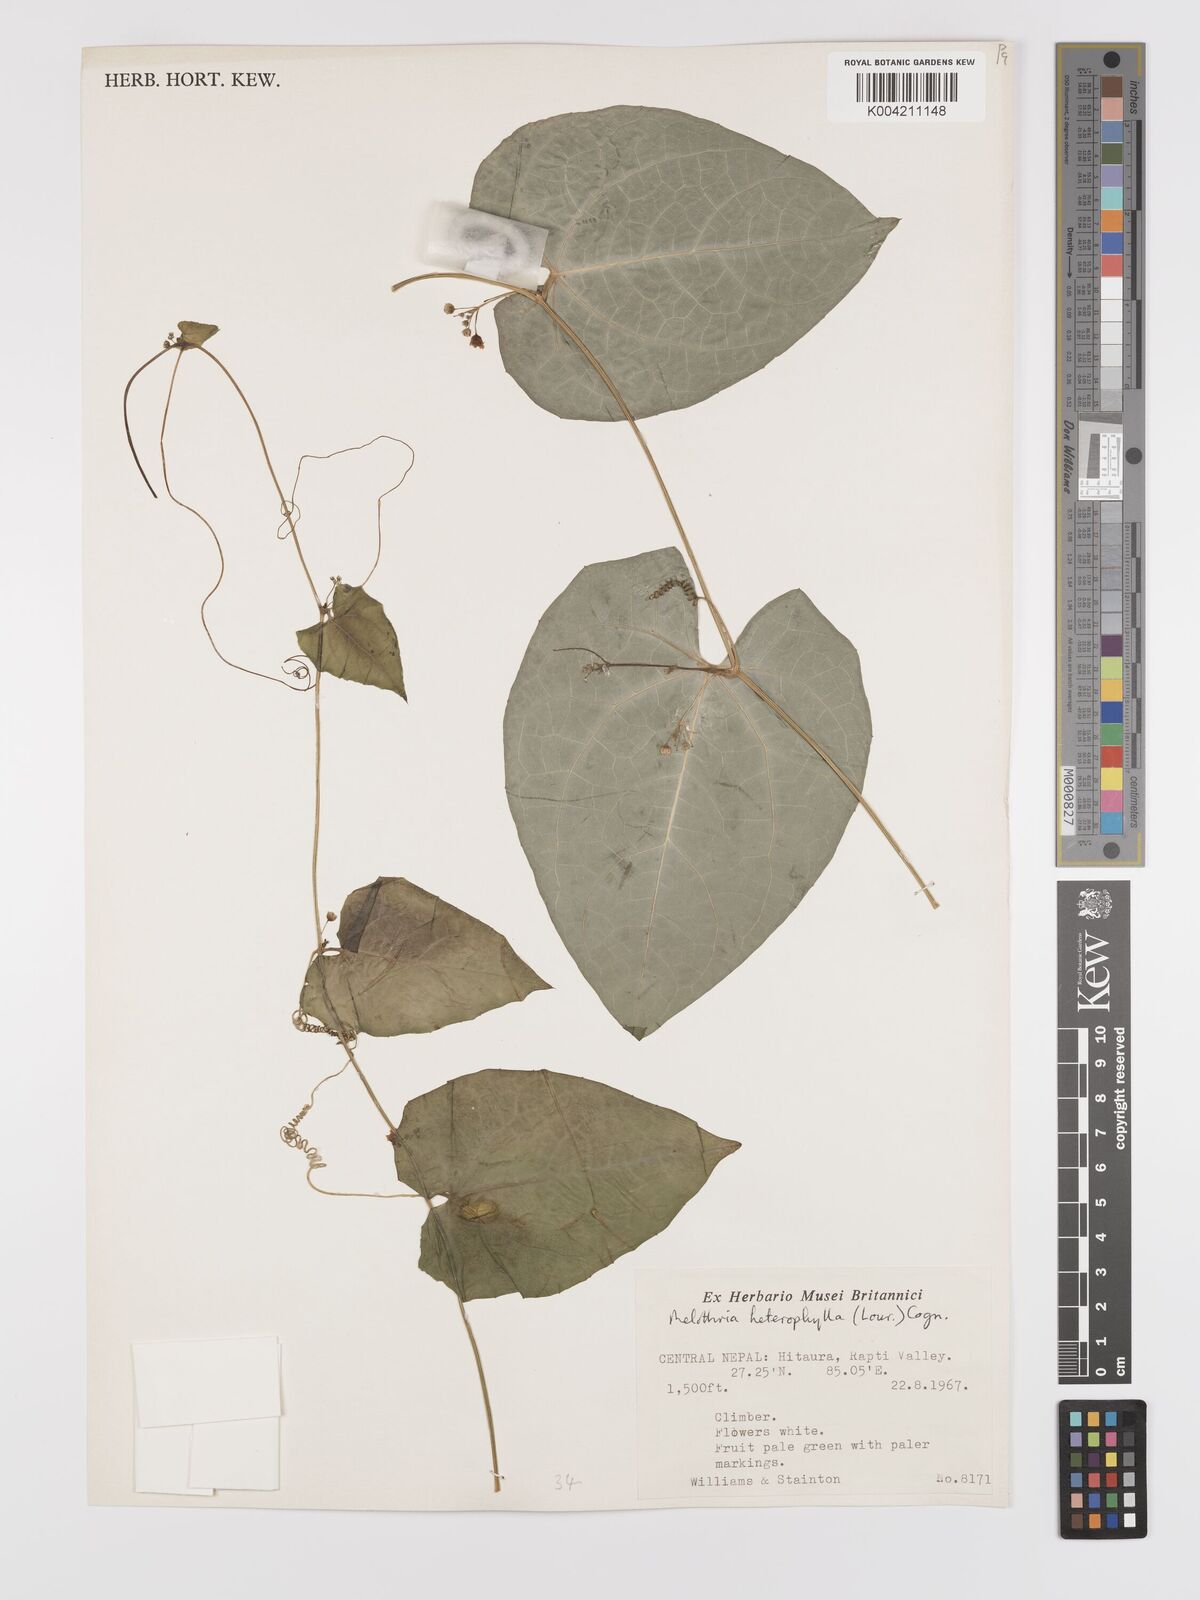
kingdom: Plantae
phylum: Tracheophyta
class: Magnoliopsida
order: Cucurbitales
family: Cucurbitaceae
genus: Solena
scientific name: Solena
